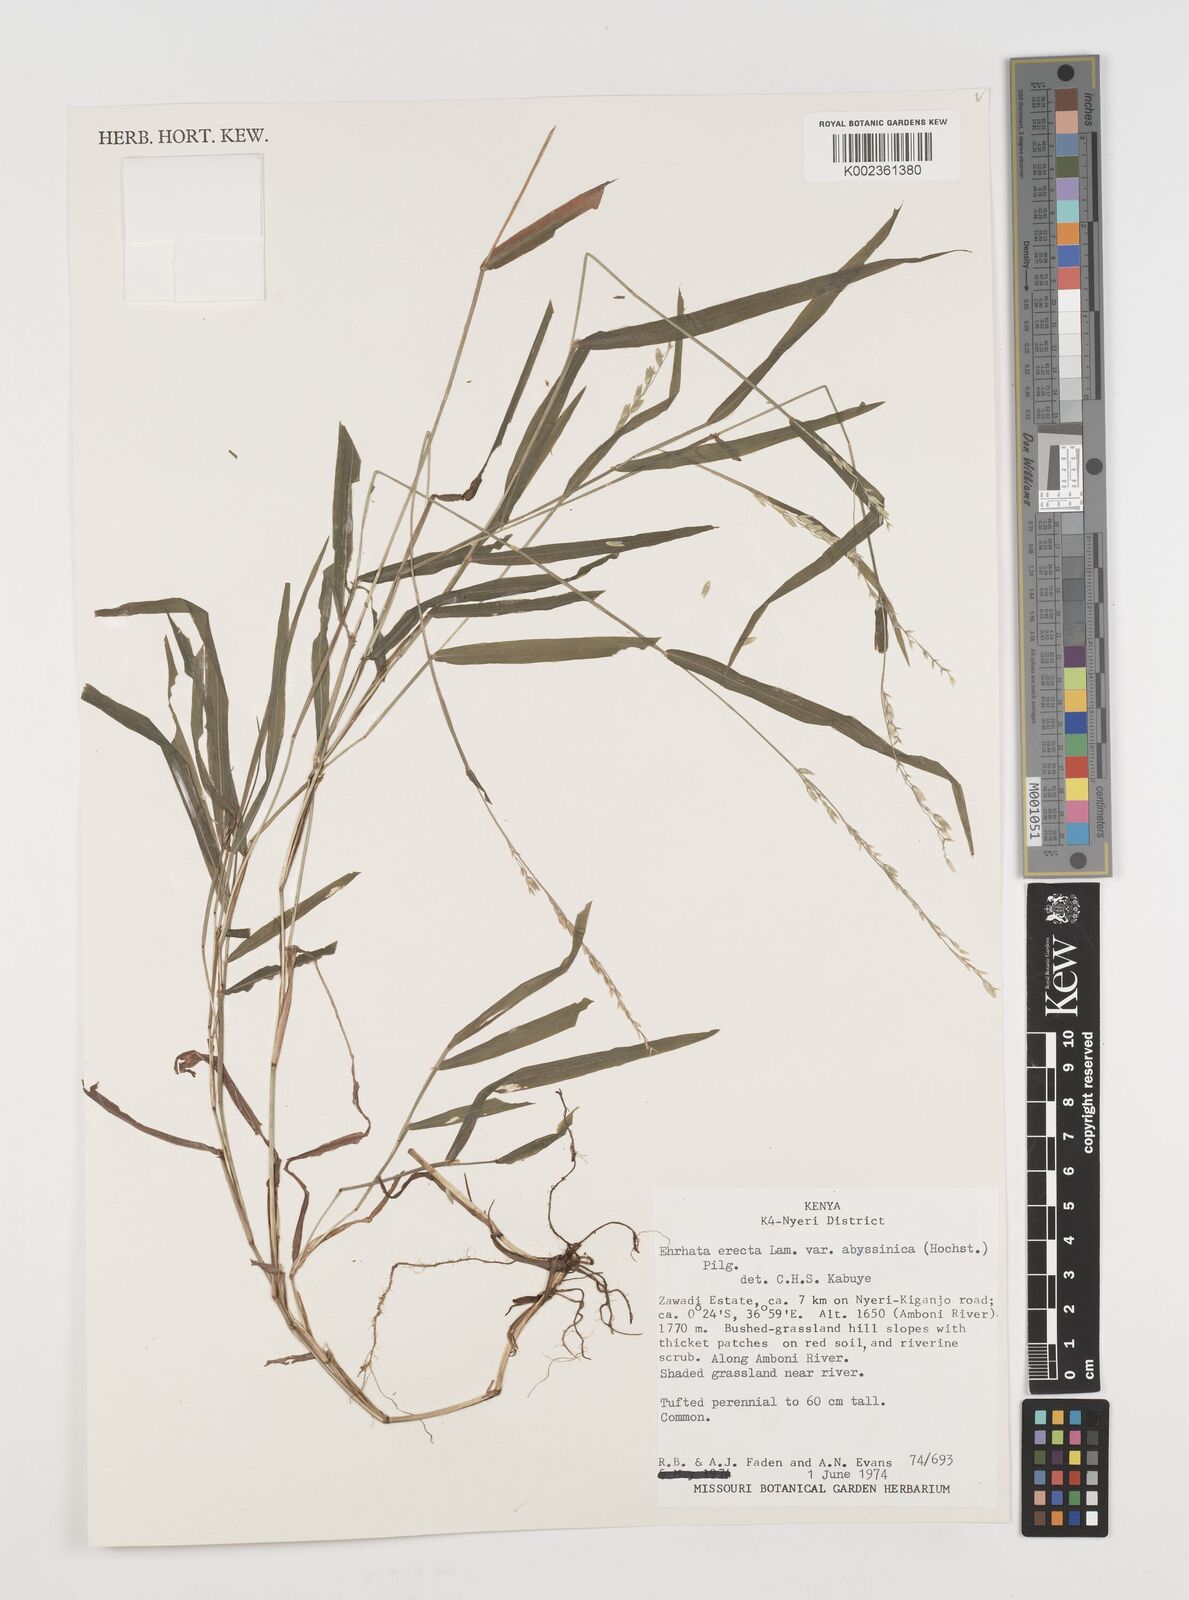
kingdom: Plantae
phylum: Tracheophyta
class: Liliopsida
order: Poales
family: Poaceae
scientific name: Poaceae
